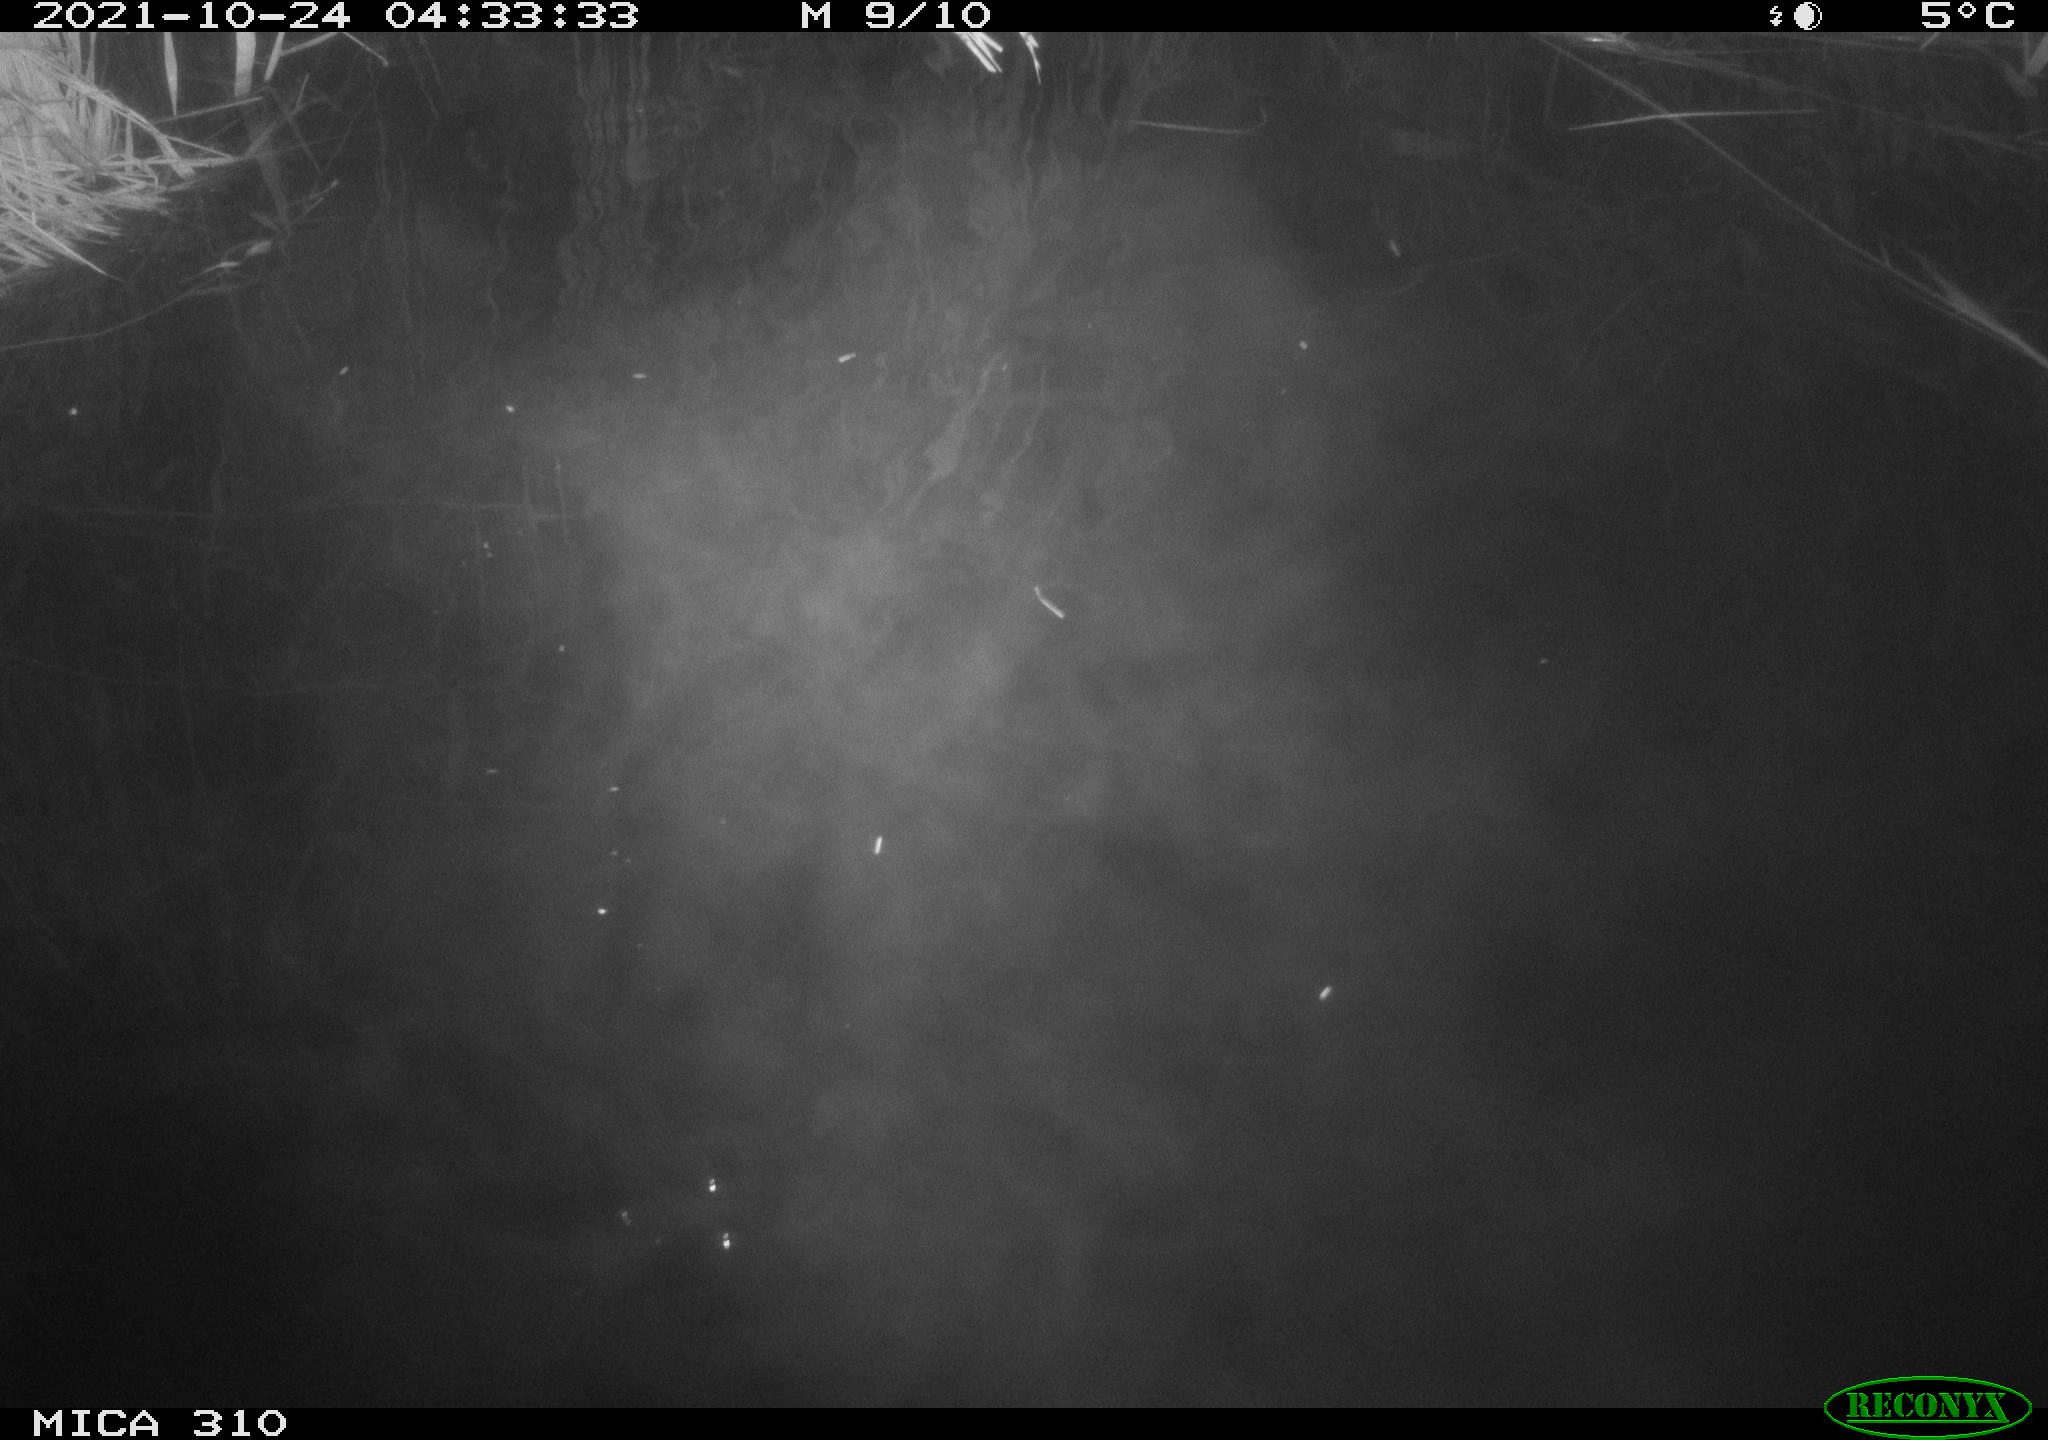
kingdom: Animalia
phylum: Chordata
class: Mammalia
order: Rodentia
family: Muridae
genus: Rattus
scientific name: Rattus norvegicus
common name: Brown rat
